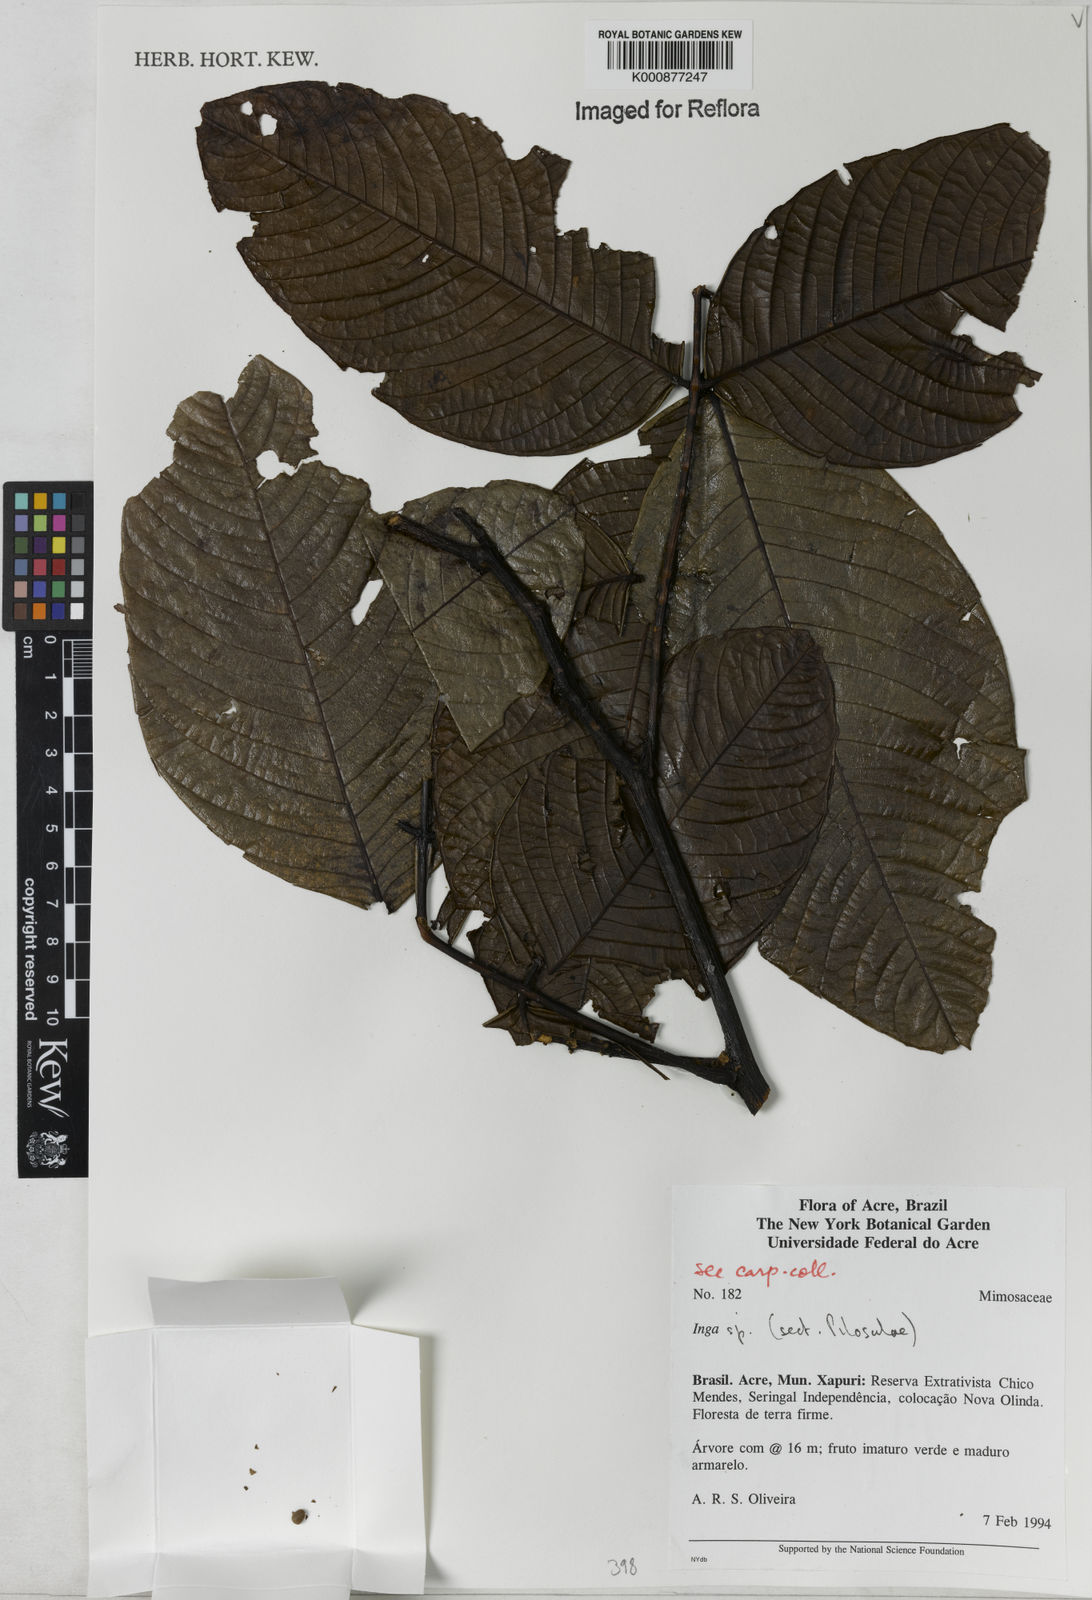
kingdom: Plantae
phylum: Tracheophyta
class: Magnoliopsida
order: Fabales
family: Fabaceae
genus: Inga
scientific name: Inga
